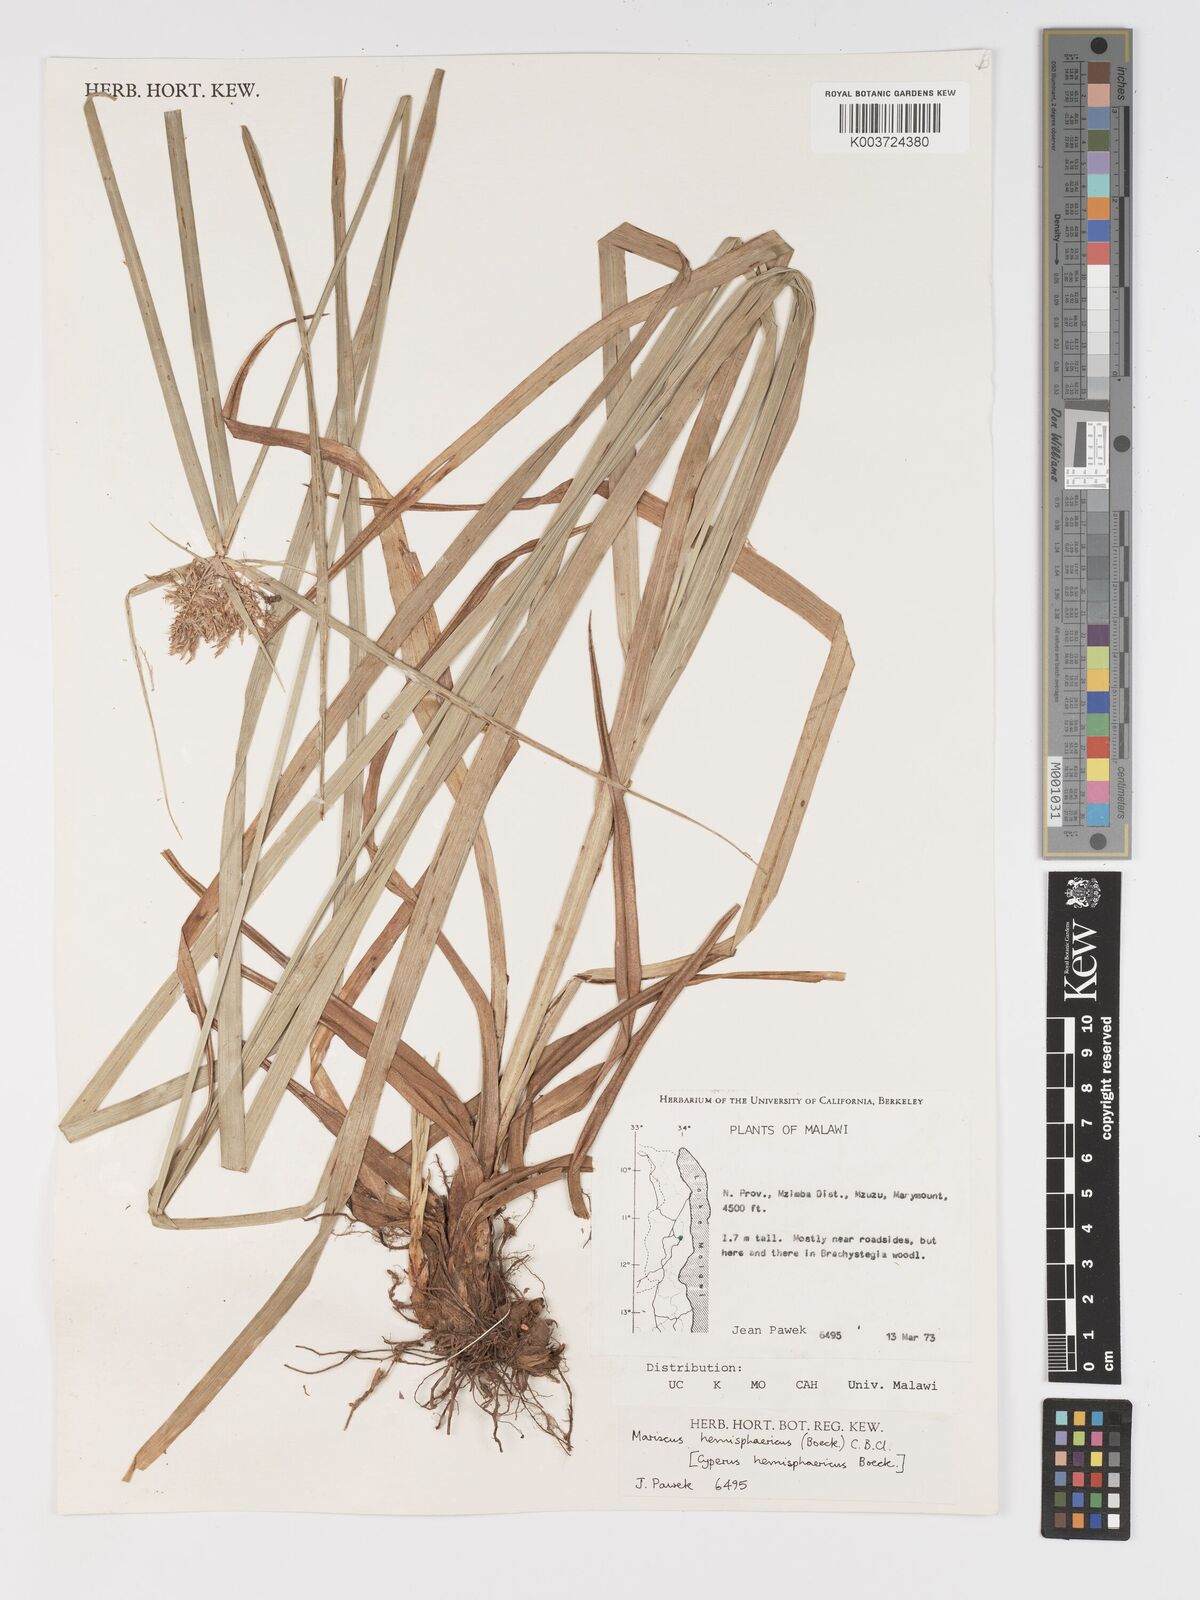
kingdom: Plantae
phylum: Tracheophyta
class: Liliopsida
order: Poales
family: Cyperaceae
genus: Cyperus
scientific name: Cyperus hemisphaericus
